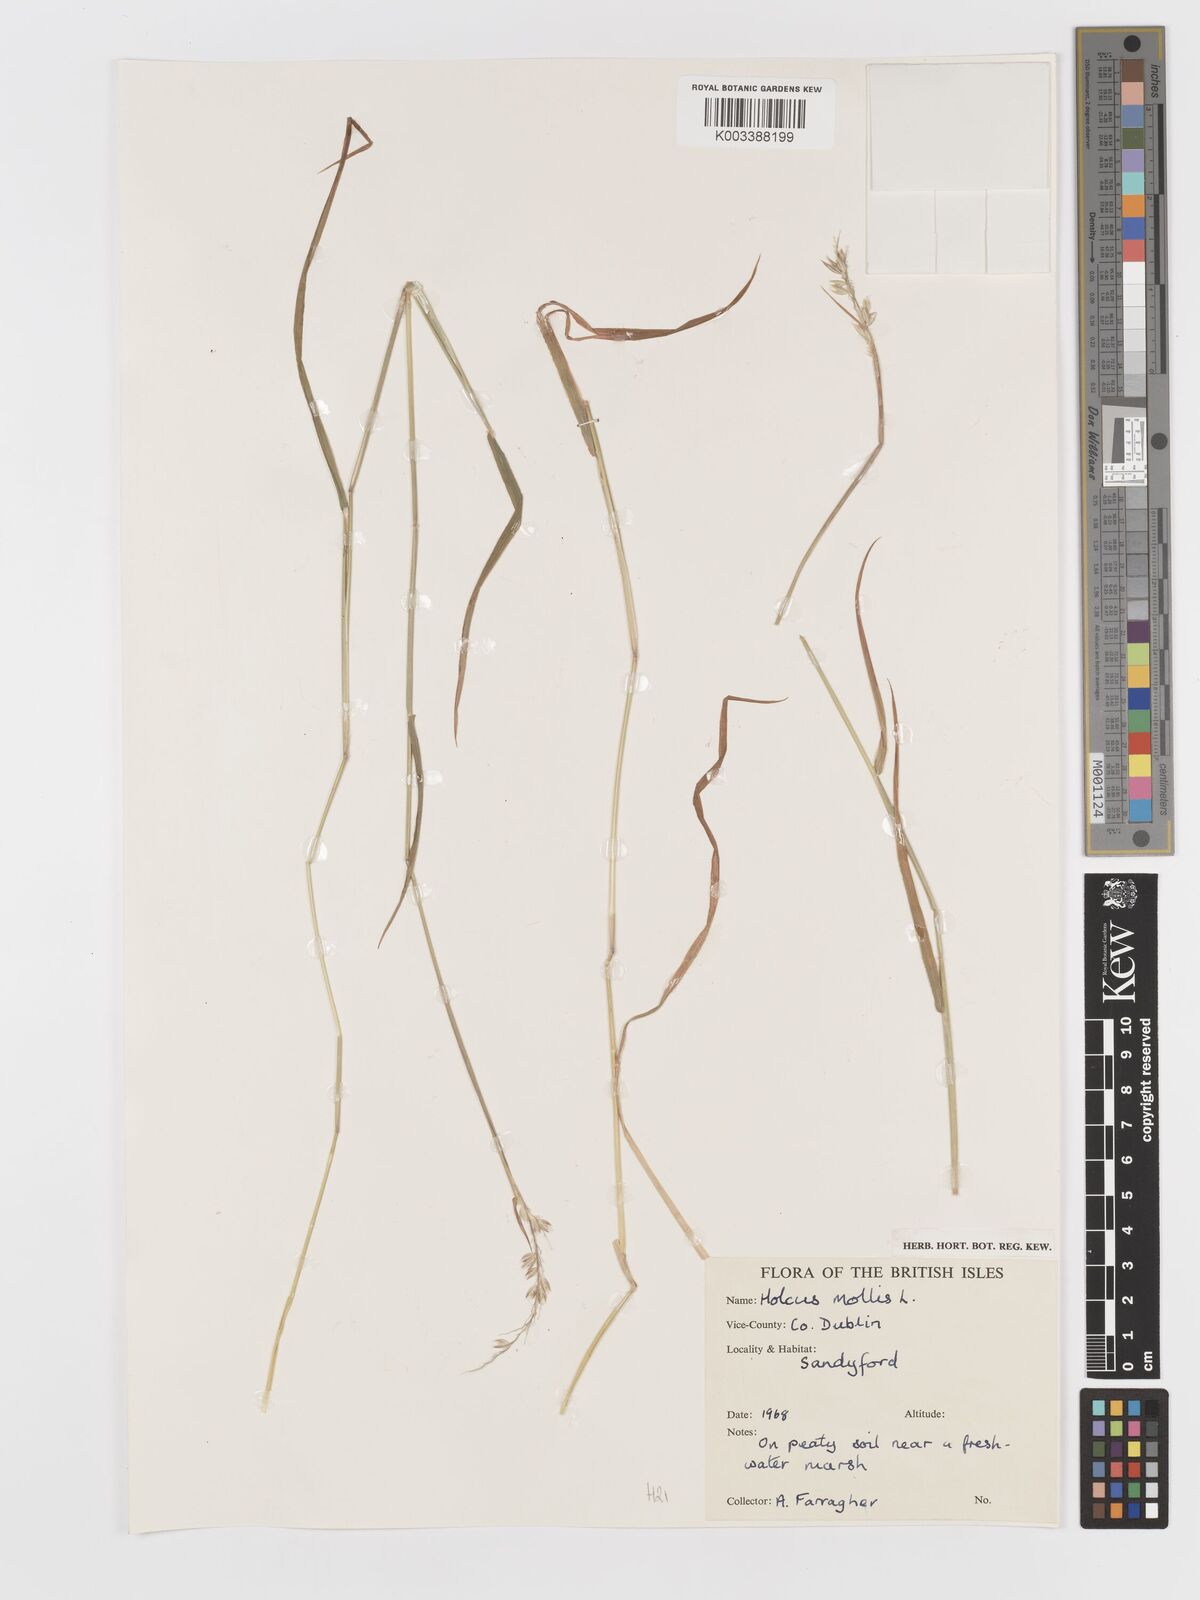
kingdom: Plantae
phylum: Tracheophyta
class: Liliopsida
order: Poales
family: Poaceae
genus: Holcus
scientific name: Holcus mollis
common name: Creeping velvetgrass
